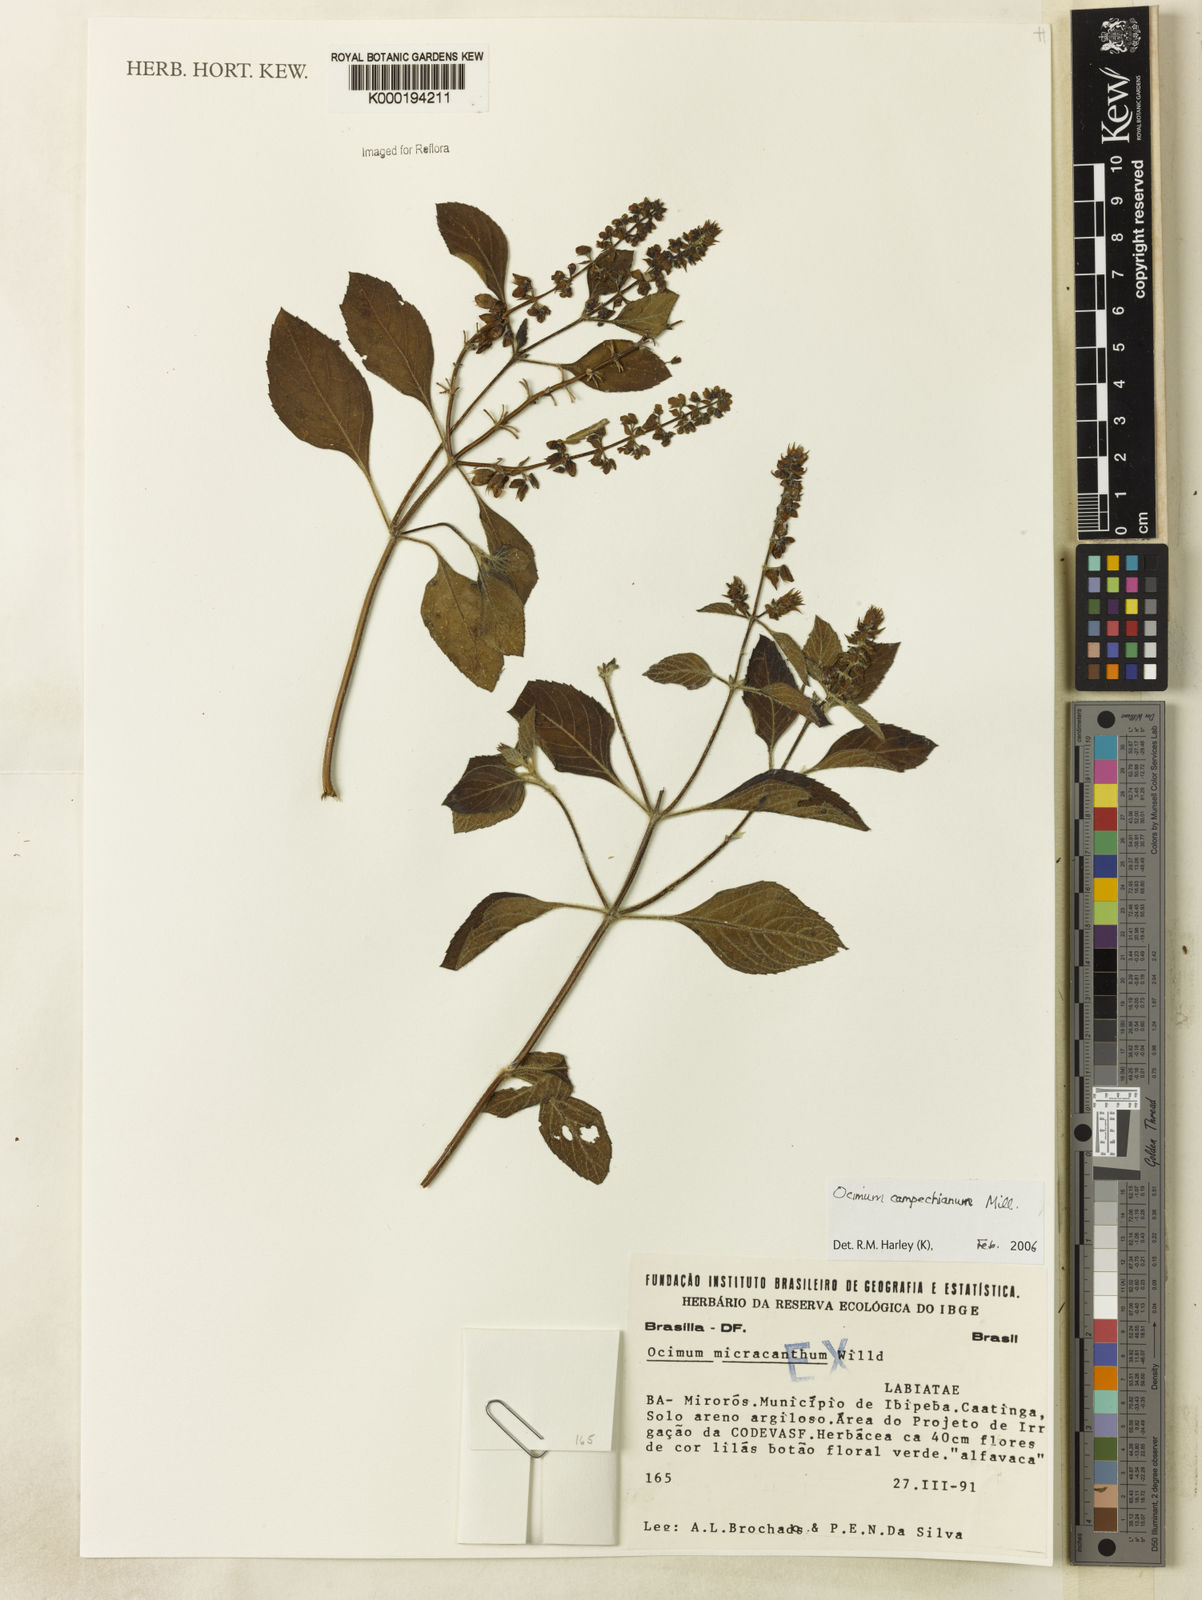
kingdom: Plantae
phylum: Tracheophyta
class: Magnoliopsida
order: Lamiales
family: Lamiaceae
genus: Ocimum
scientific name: Ocimum campechianum
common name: Mosquito basil
